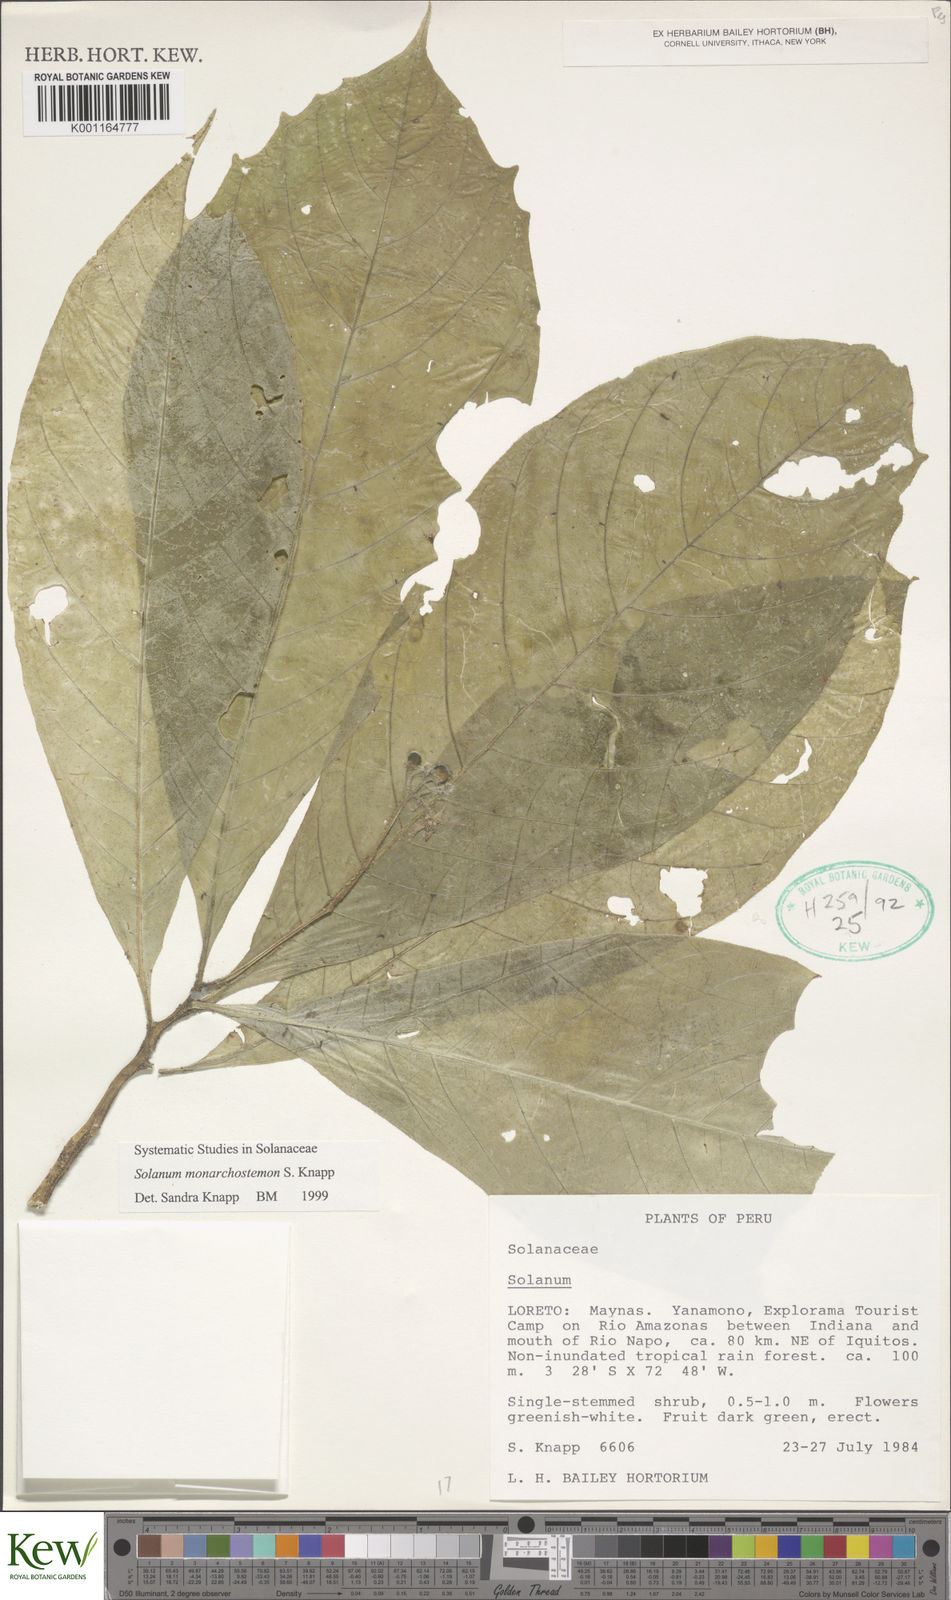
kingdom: Plantae
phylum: Tracheophyta
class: Magnoliopsida
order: Solanales
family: Solanaceae
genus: Solanum
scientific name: Solanum monarchostemon
